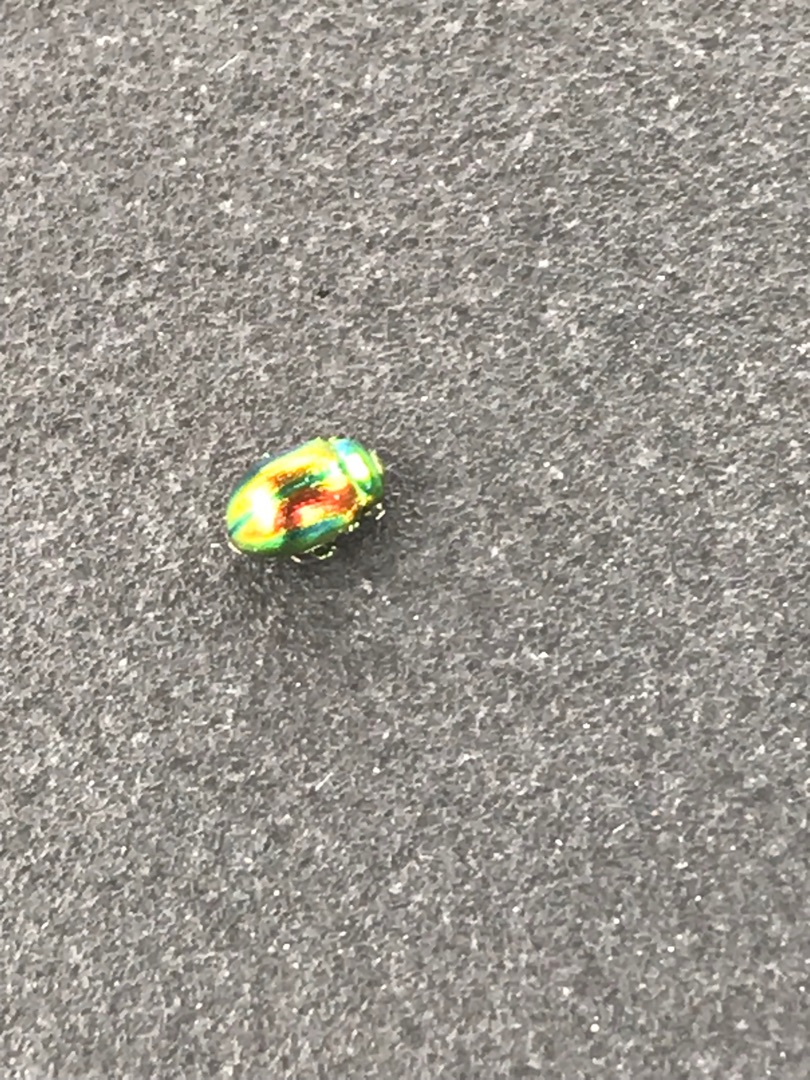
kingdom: Animalia
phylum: Arthropoda
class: Insecta
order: Coleoptera
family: Chrysomelidae
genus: Chrysolina
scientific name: Chrysolina fastuosa
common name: Tvetandbladbille
